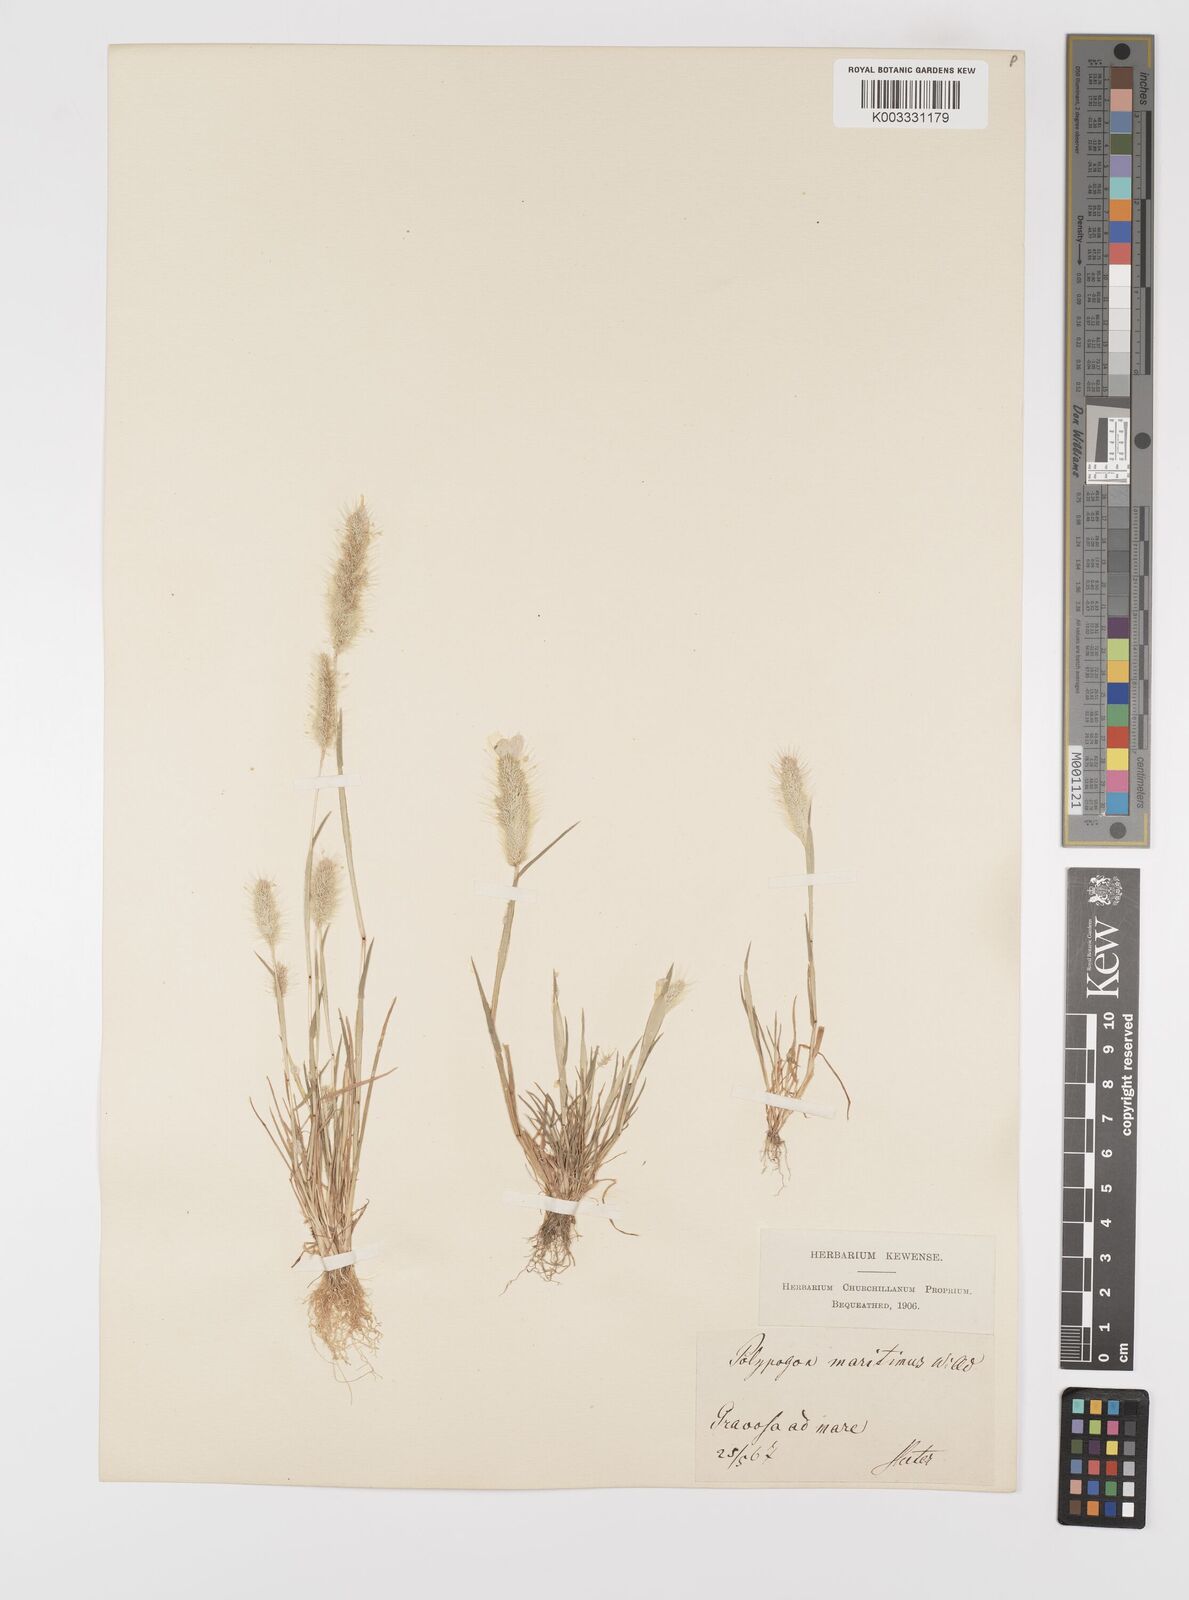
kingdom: Plantae
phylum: Tracheophyta
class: Liliopsida
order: Poales
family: Poaceae
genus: Polypogon
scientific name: Polypogon maritimus
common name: Mediterranean rabbitsfoot grass
